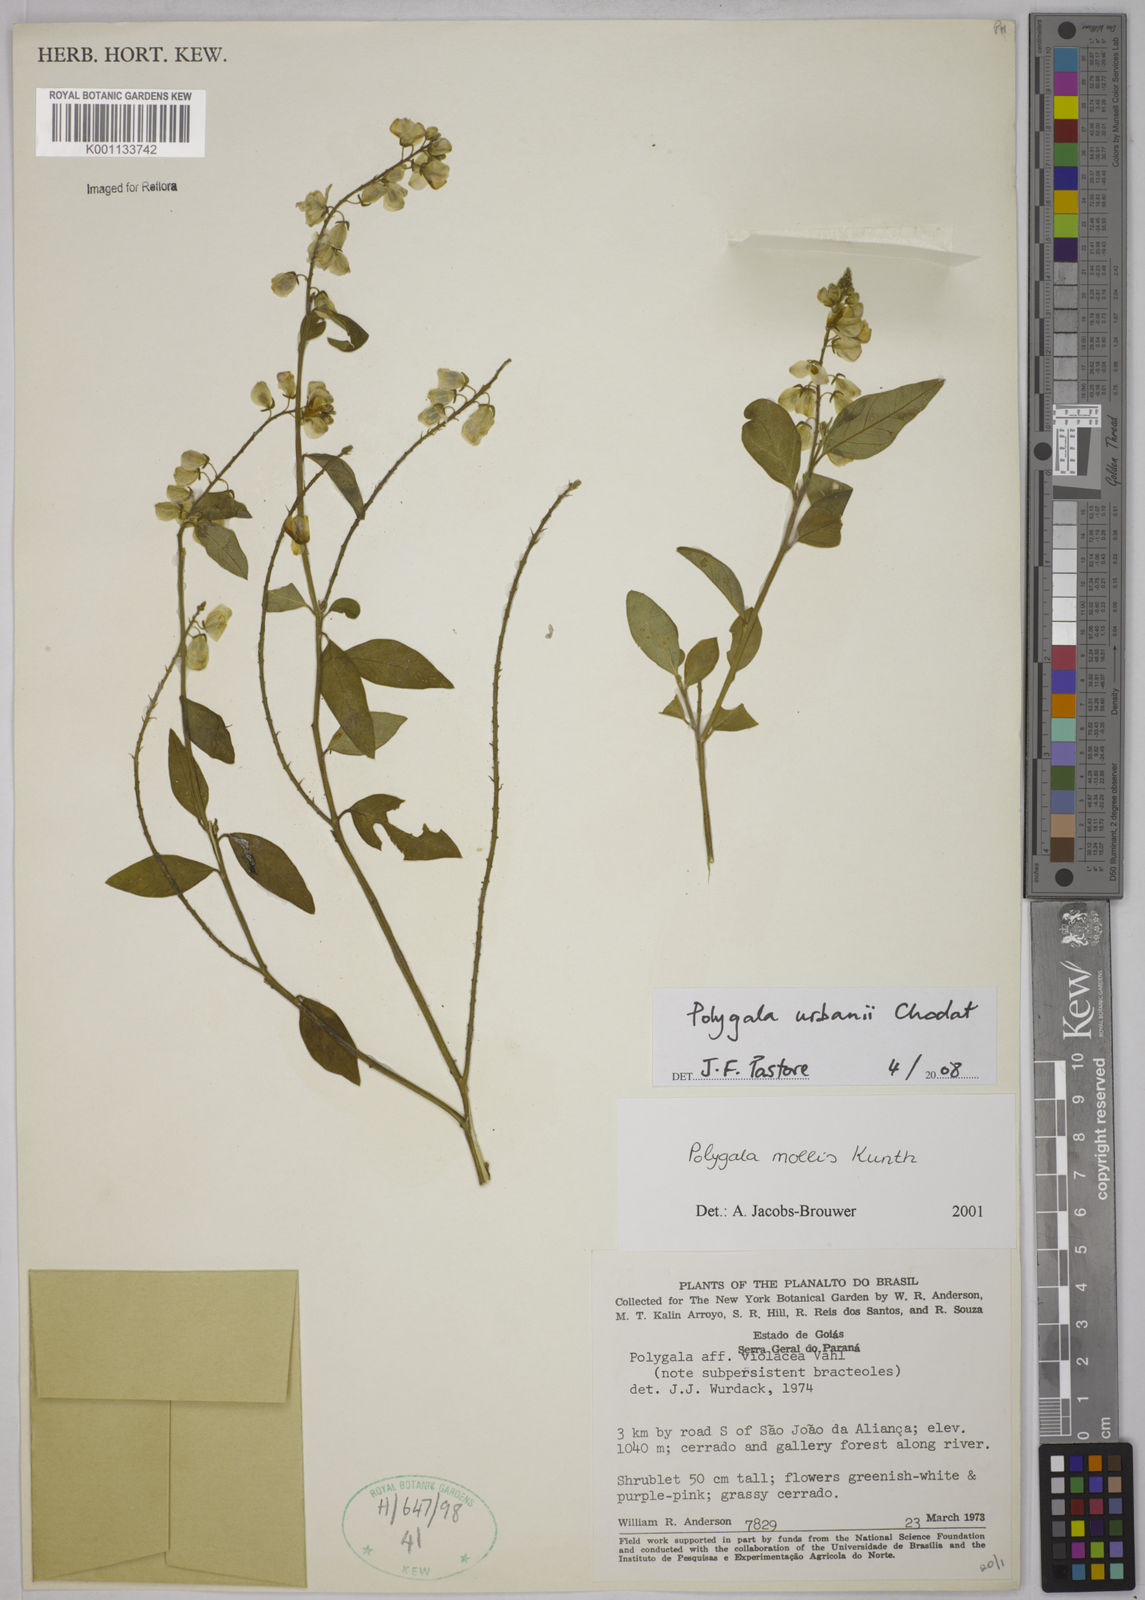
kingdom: Plantae
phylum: Tracheophyta
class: Magnoliopsida
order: Fabales
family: Polygalaceae
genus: Asemeia
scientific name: Asemeia monninoides
